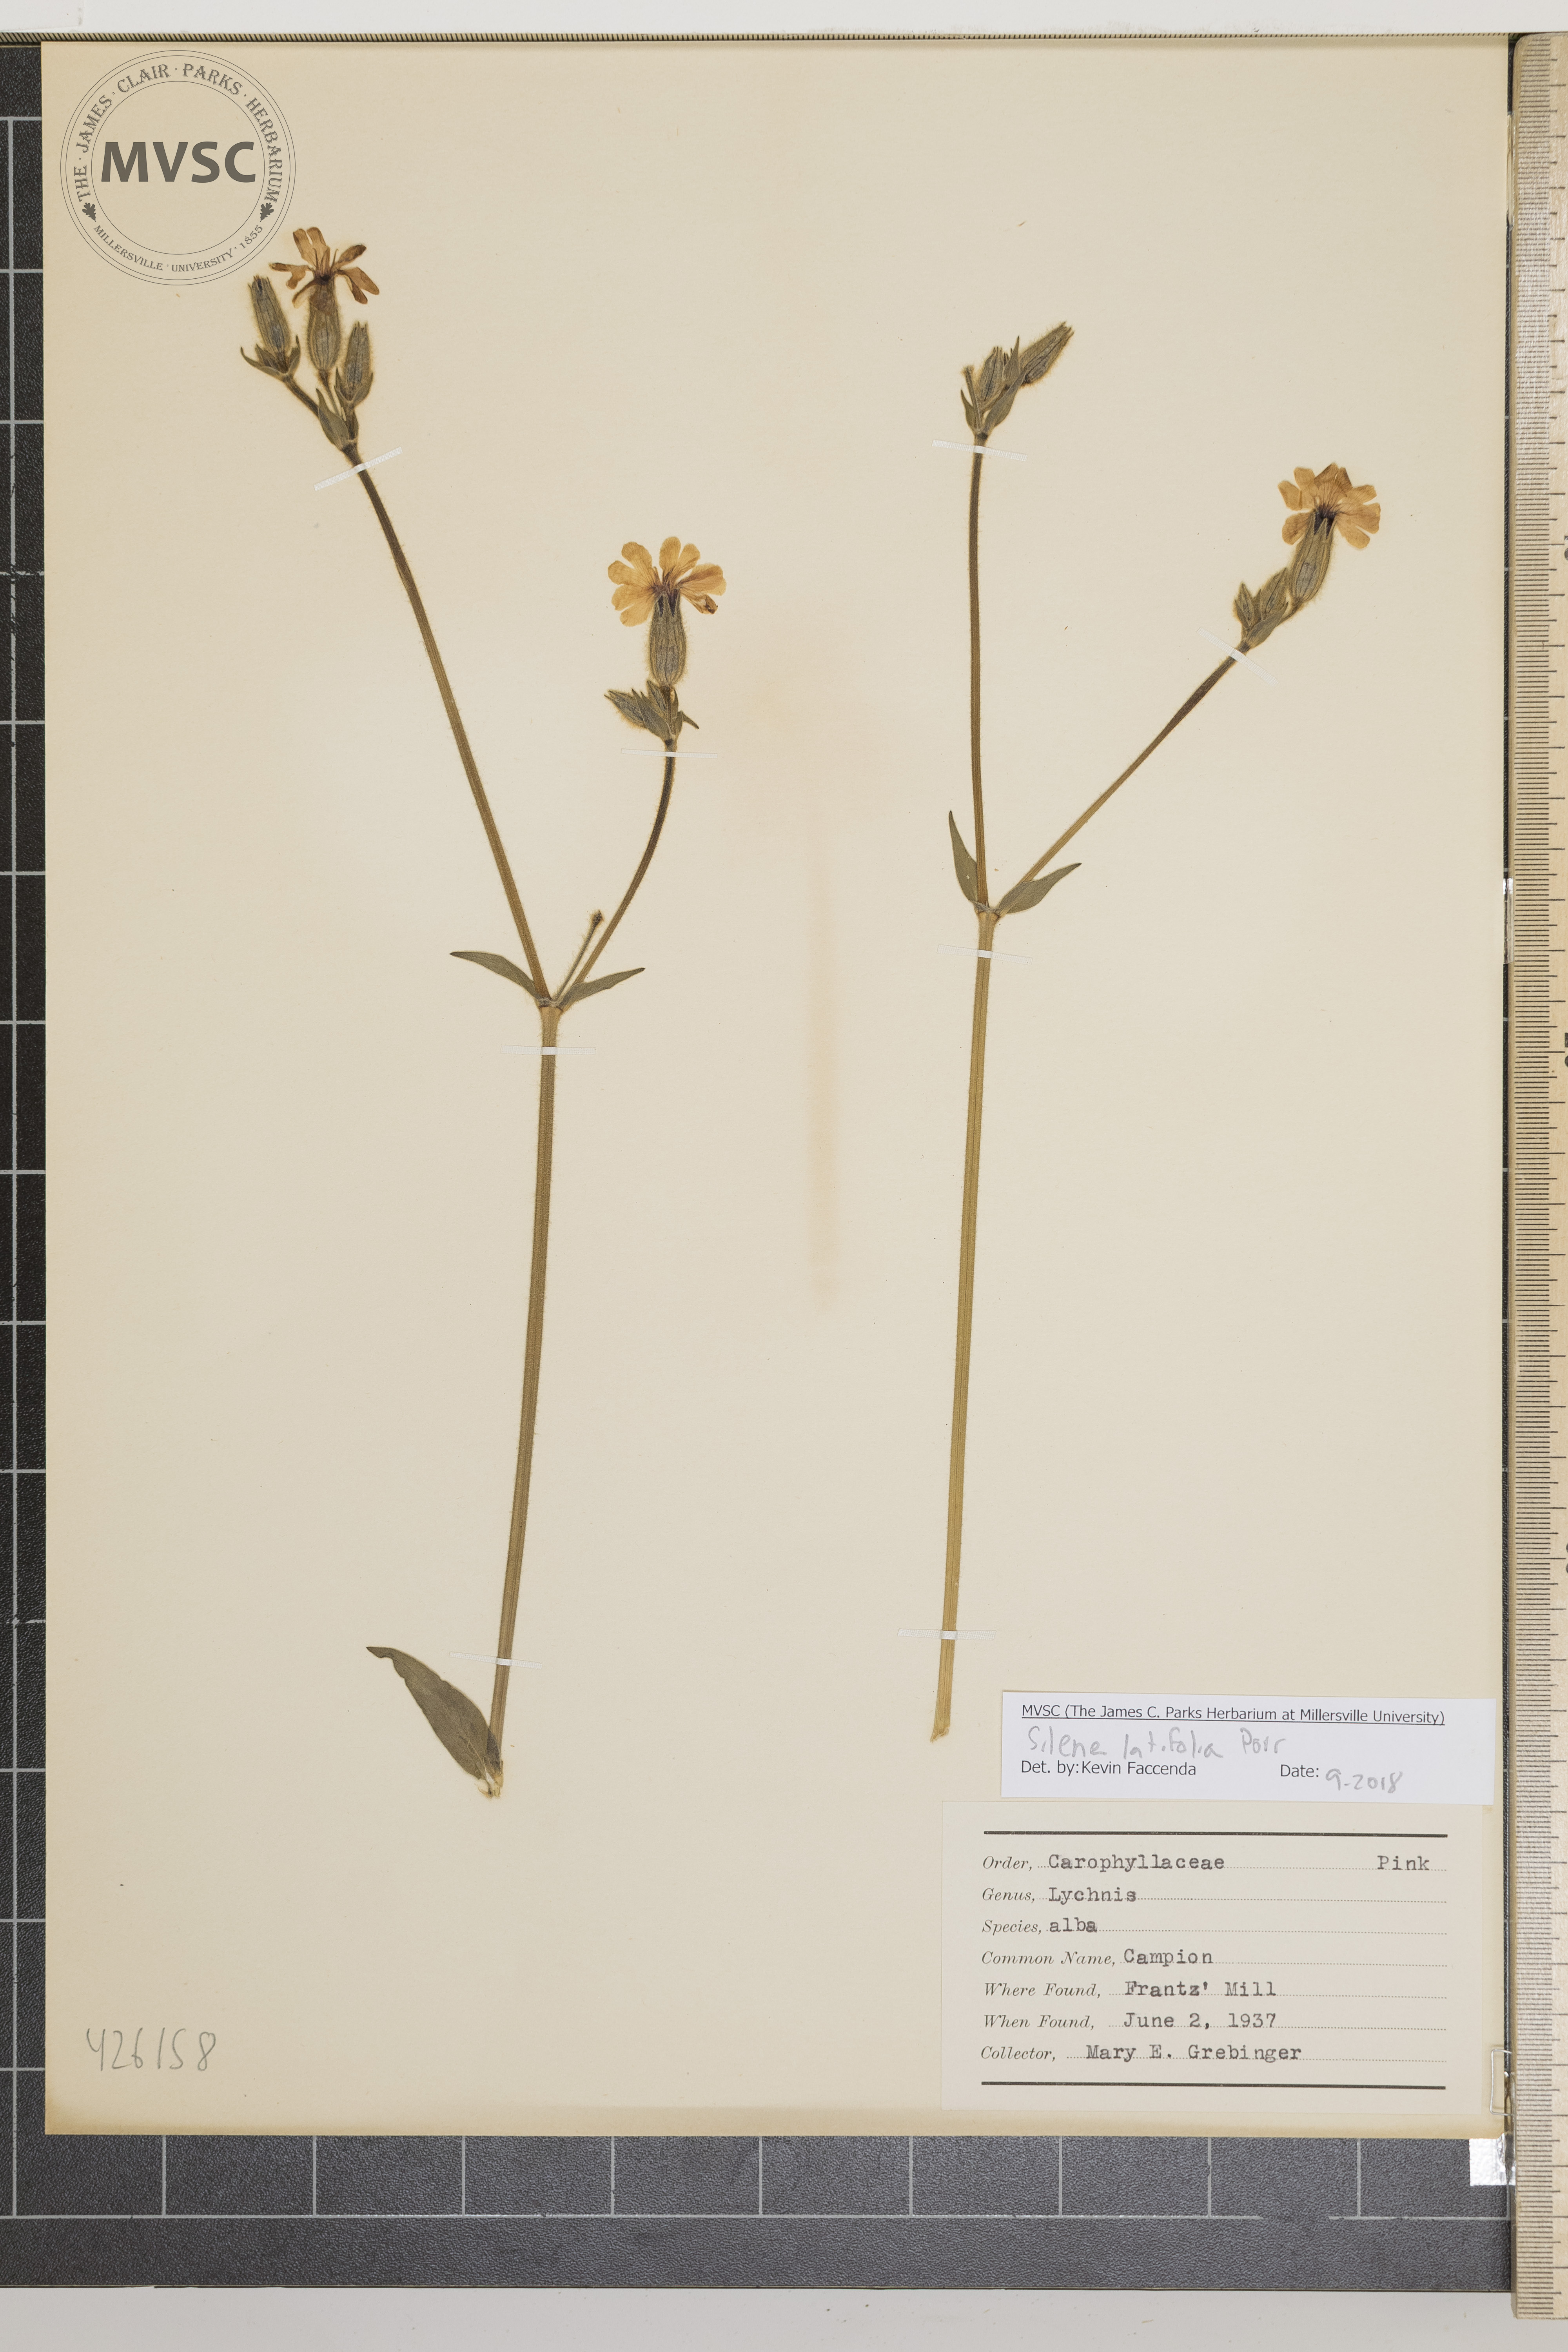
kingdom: Plantae
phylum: Tracheophyta
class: Magnoliopsida
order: Caryophyllales
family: Caryophyllaceae
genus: Silene
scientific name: Silene latifolia
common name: Campion
